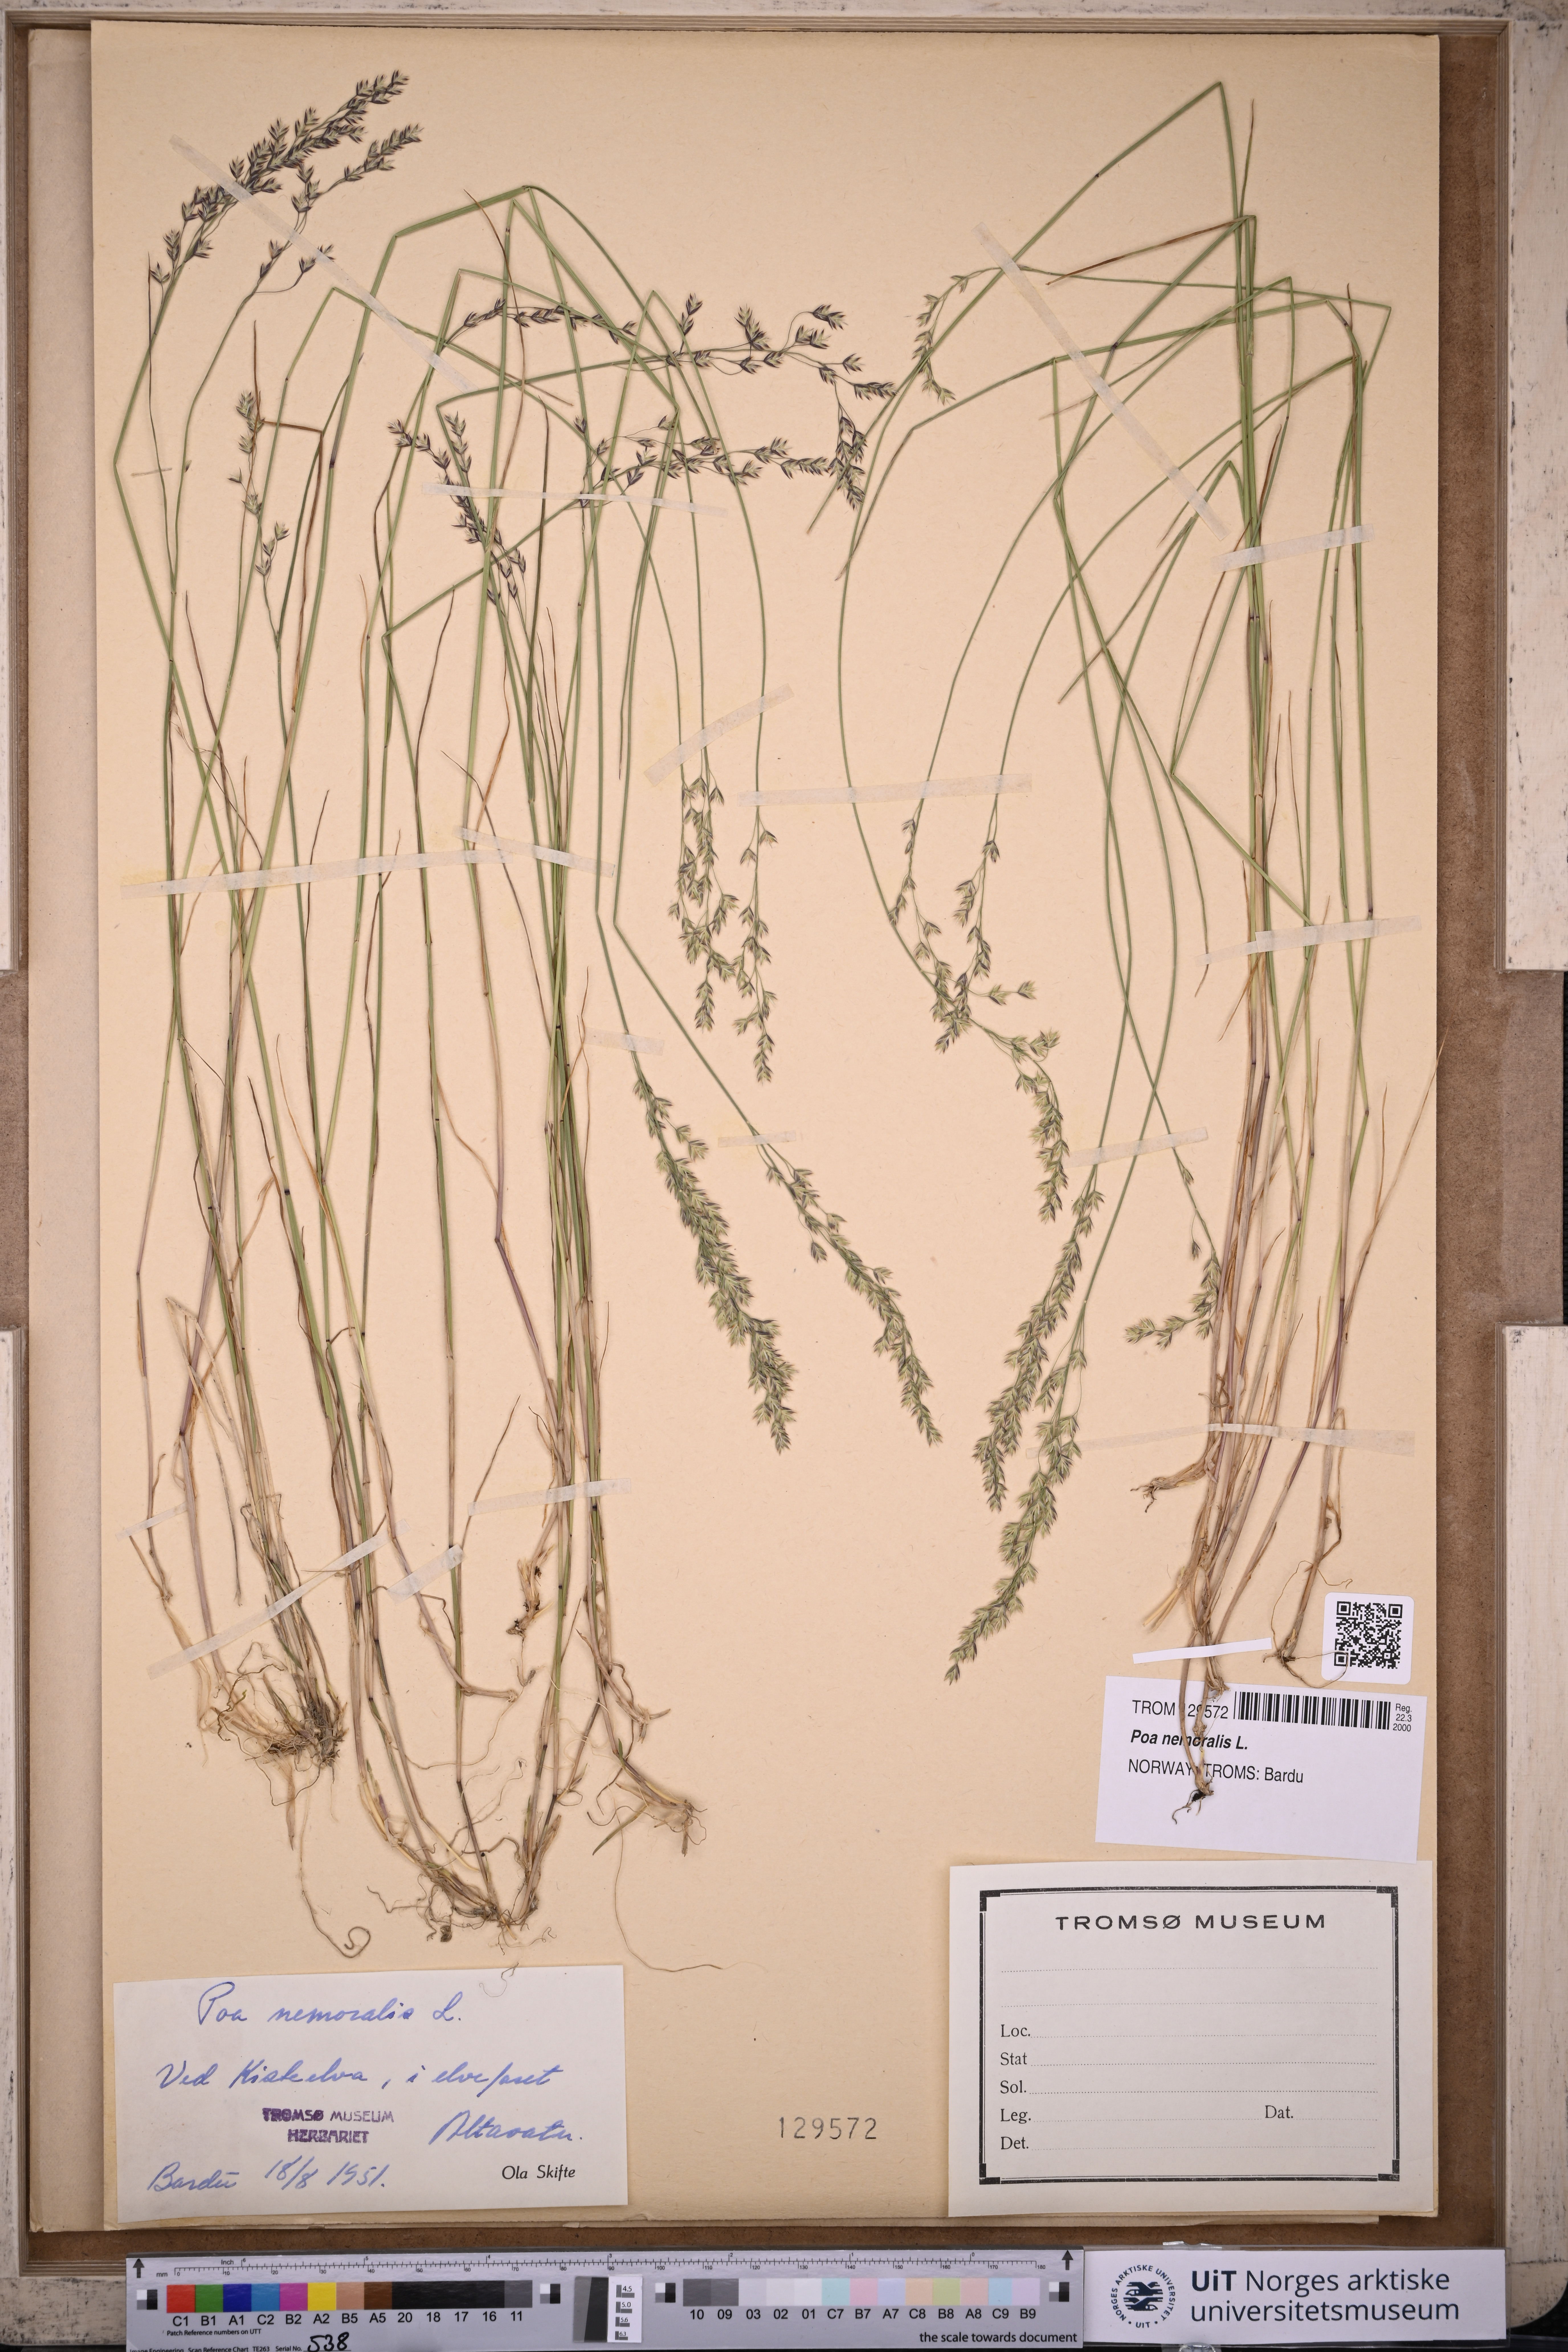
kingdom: Plantae
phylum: Tracheophyta
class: Liliopsida
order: Poales
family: Poaceae
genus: Poa
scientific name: Poa nemoralis
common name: Wood bluegrass
